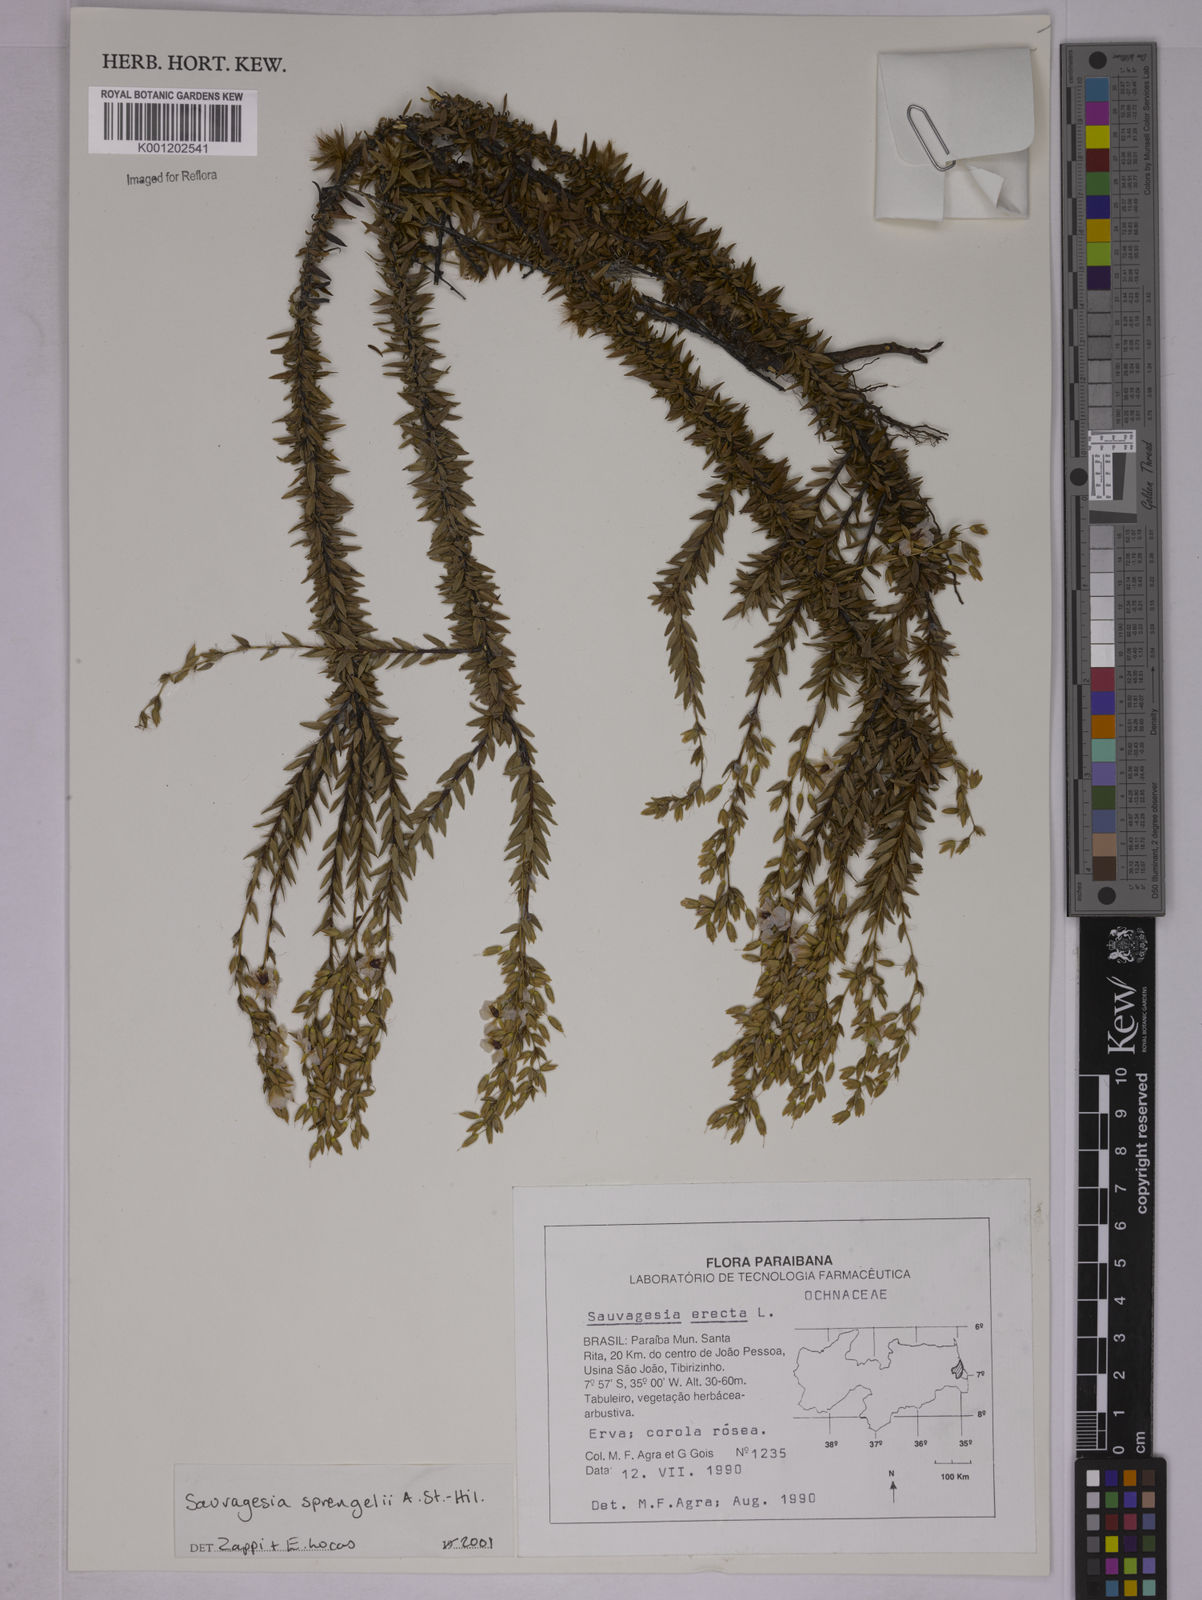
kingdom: Plantae
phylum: Tracheophyta
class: Magnoliopsida
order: Malpighiales
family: Ochnaceae
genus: Sauvagesia
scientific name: Sauvagesia sprengelii
